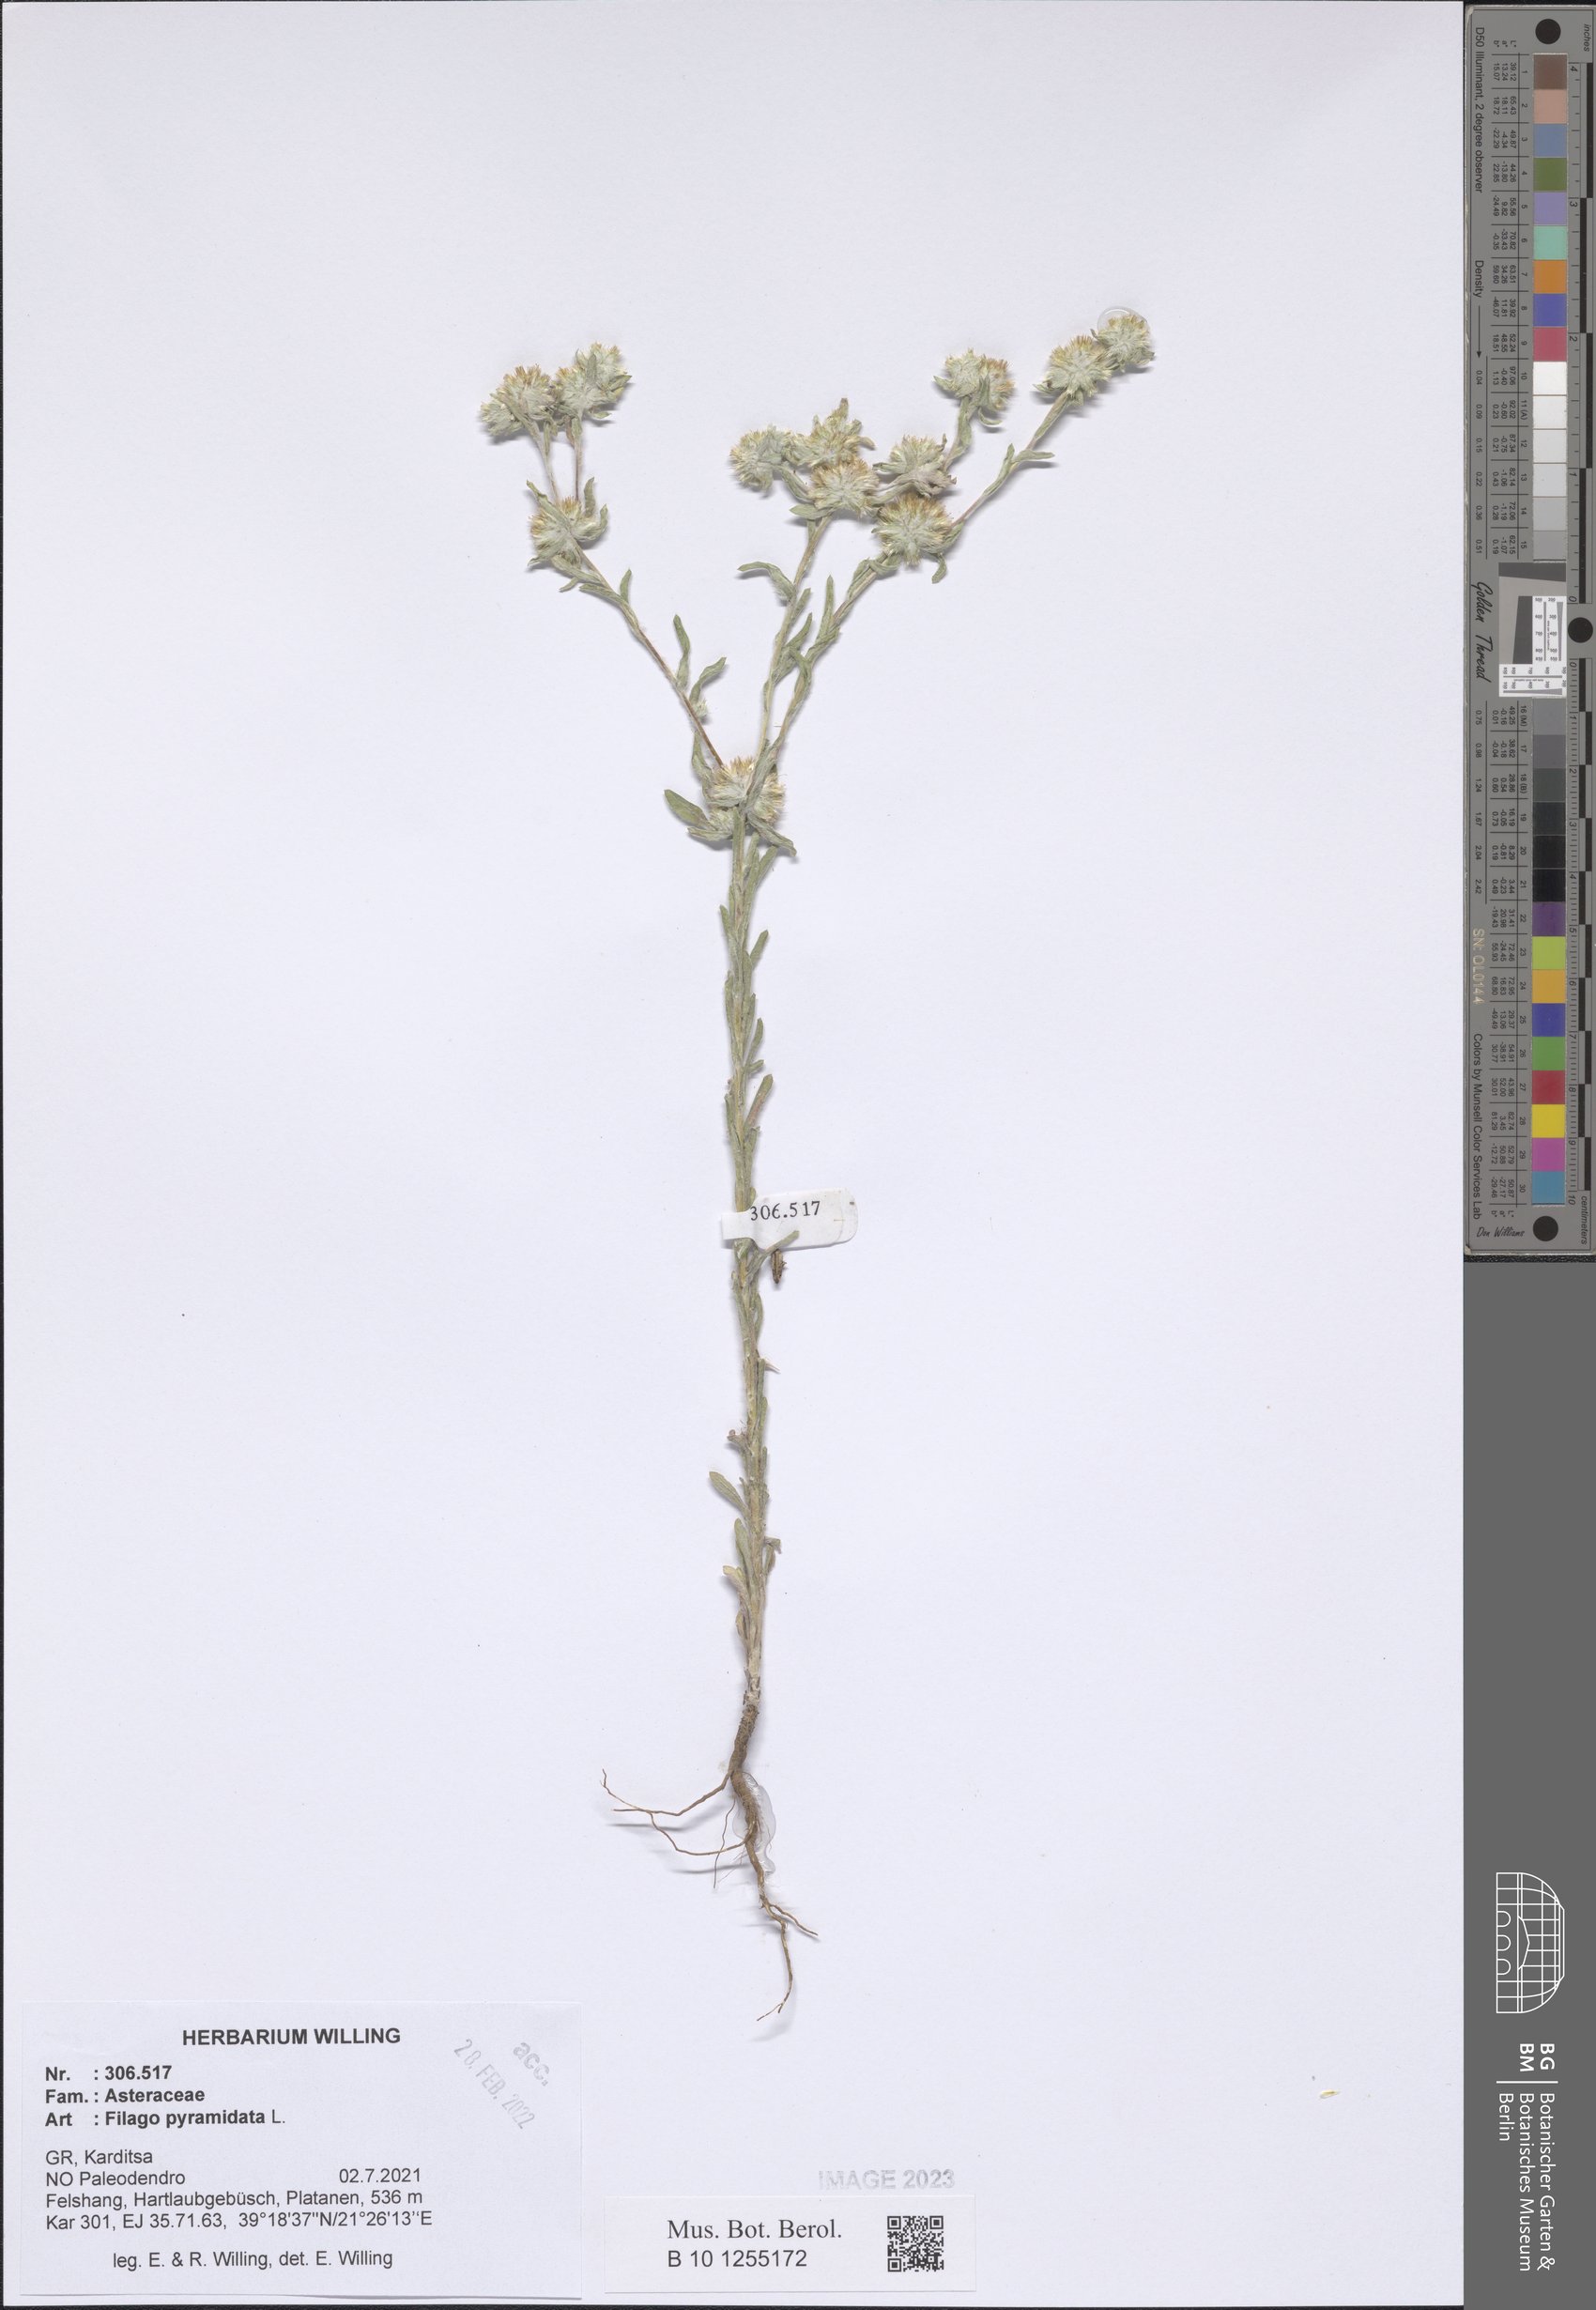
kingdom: Plantae
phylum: Tracheophyta
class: Magnoliopsida
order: Asterales
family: Asteraceae
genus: Filago
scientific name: Filago pyramidata
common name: Broad-leaved cudweed
